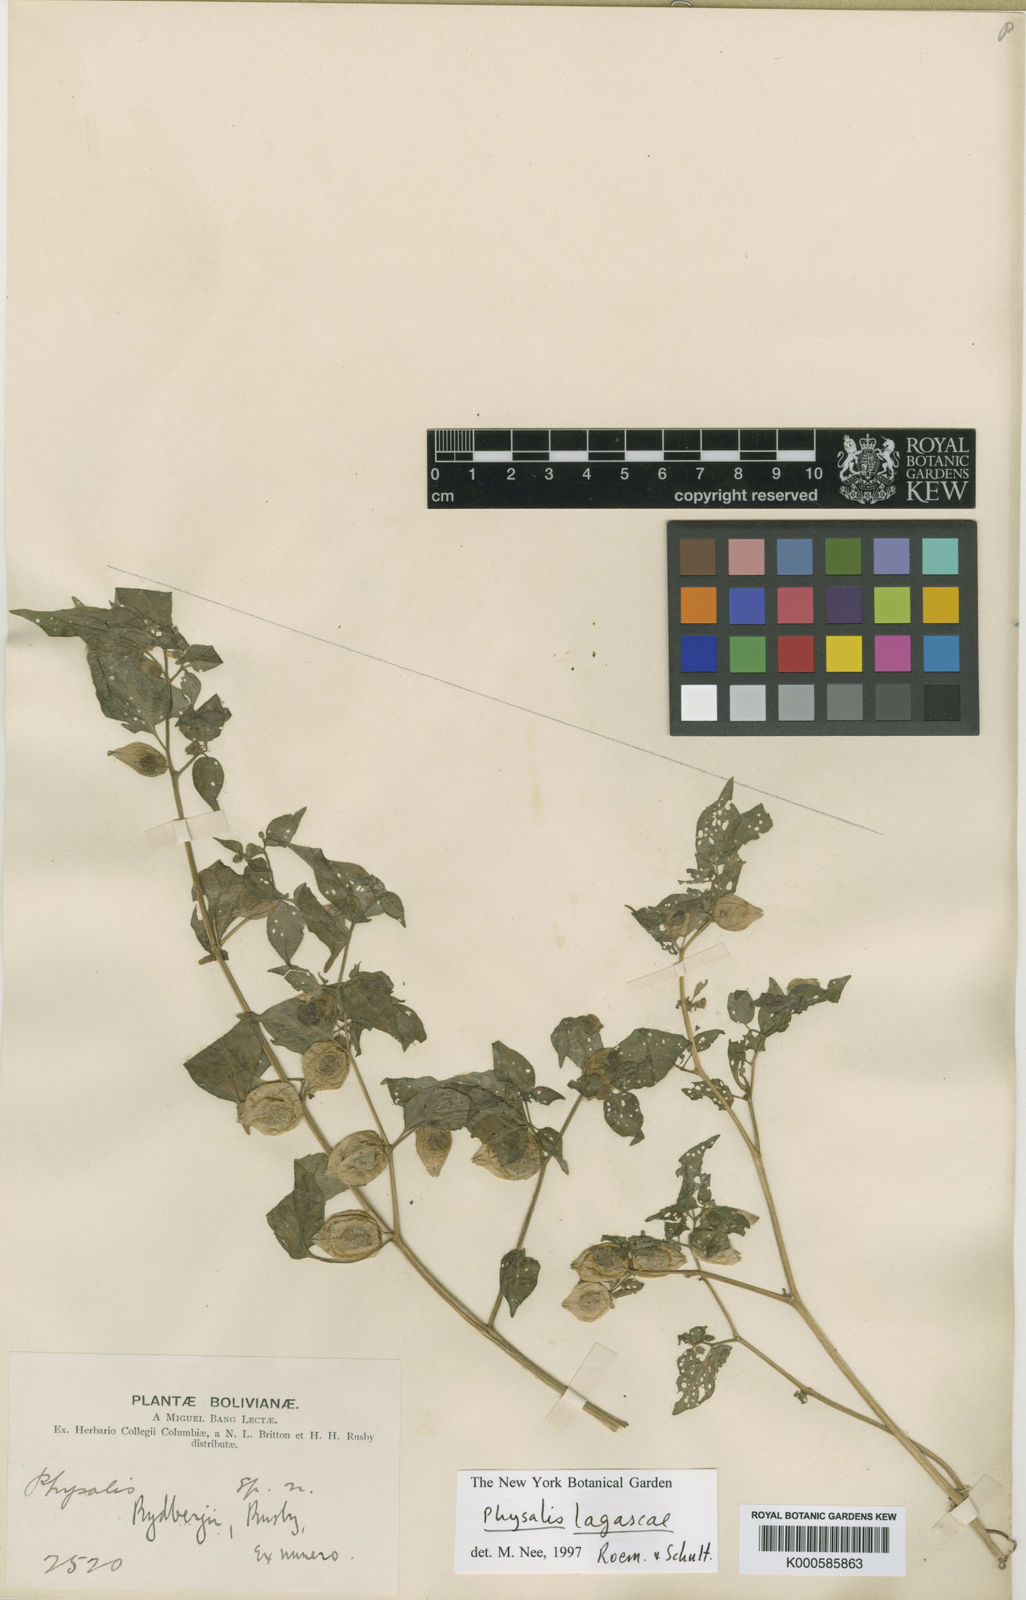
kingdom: Plantae
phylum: Tracheophyta
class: Magnoliopsida
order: Solanales
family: Solanaceae
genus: Physalis
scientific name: Physalis lagascae
